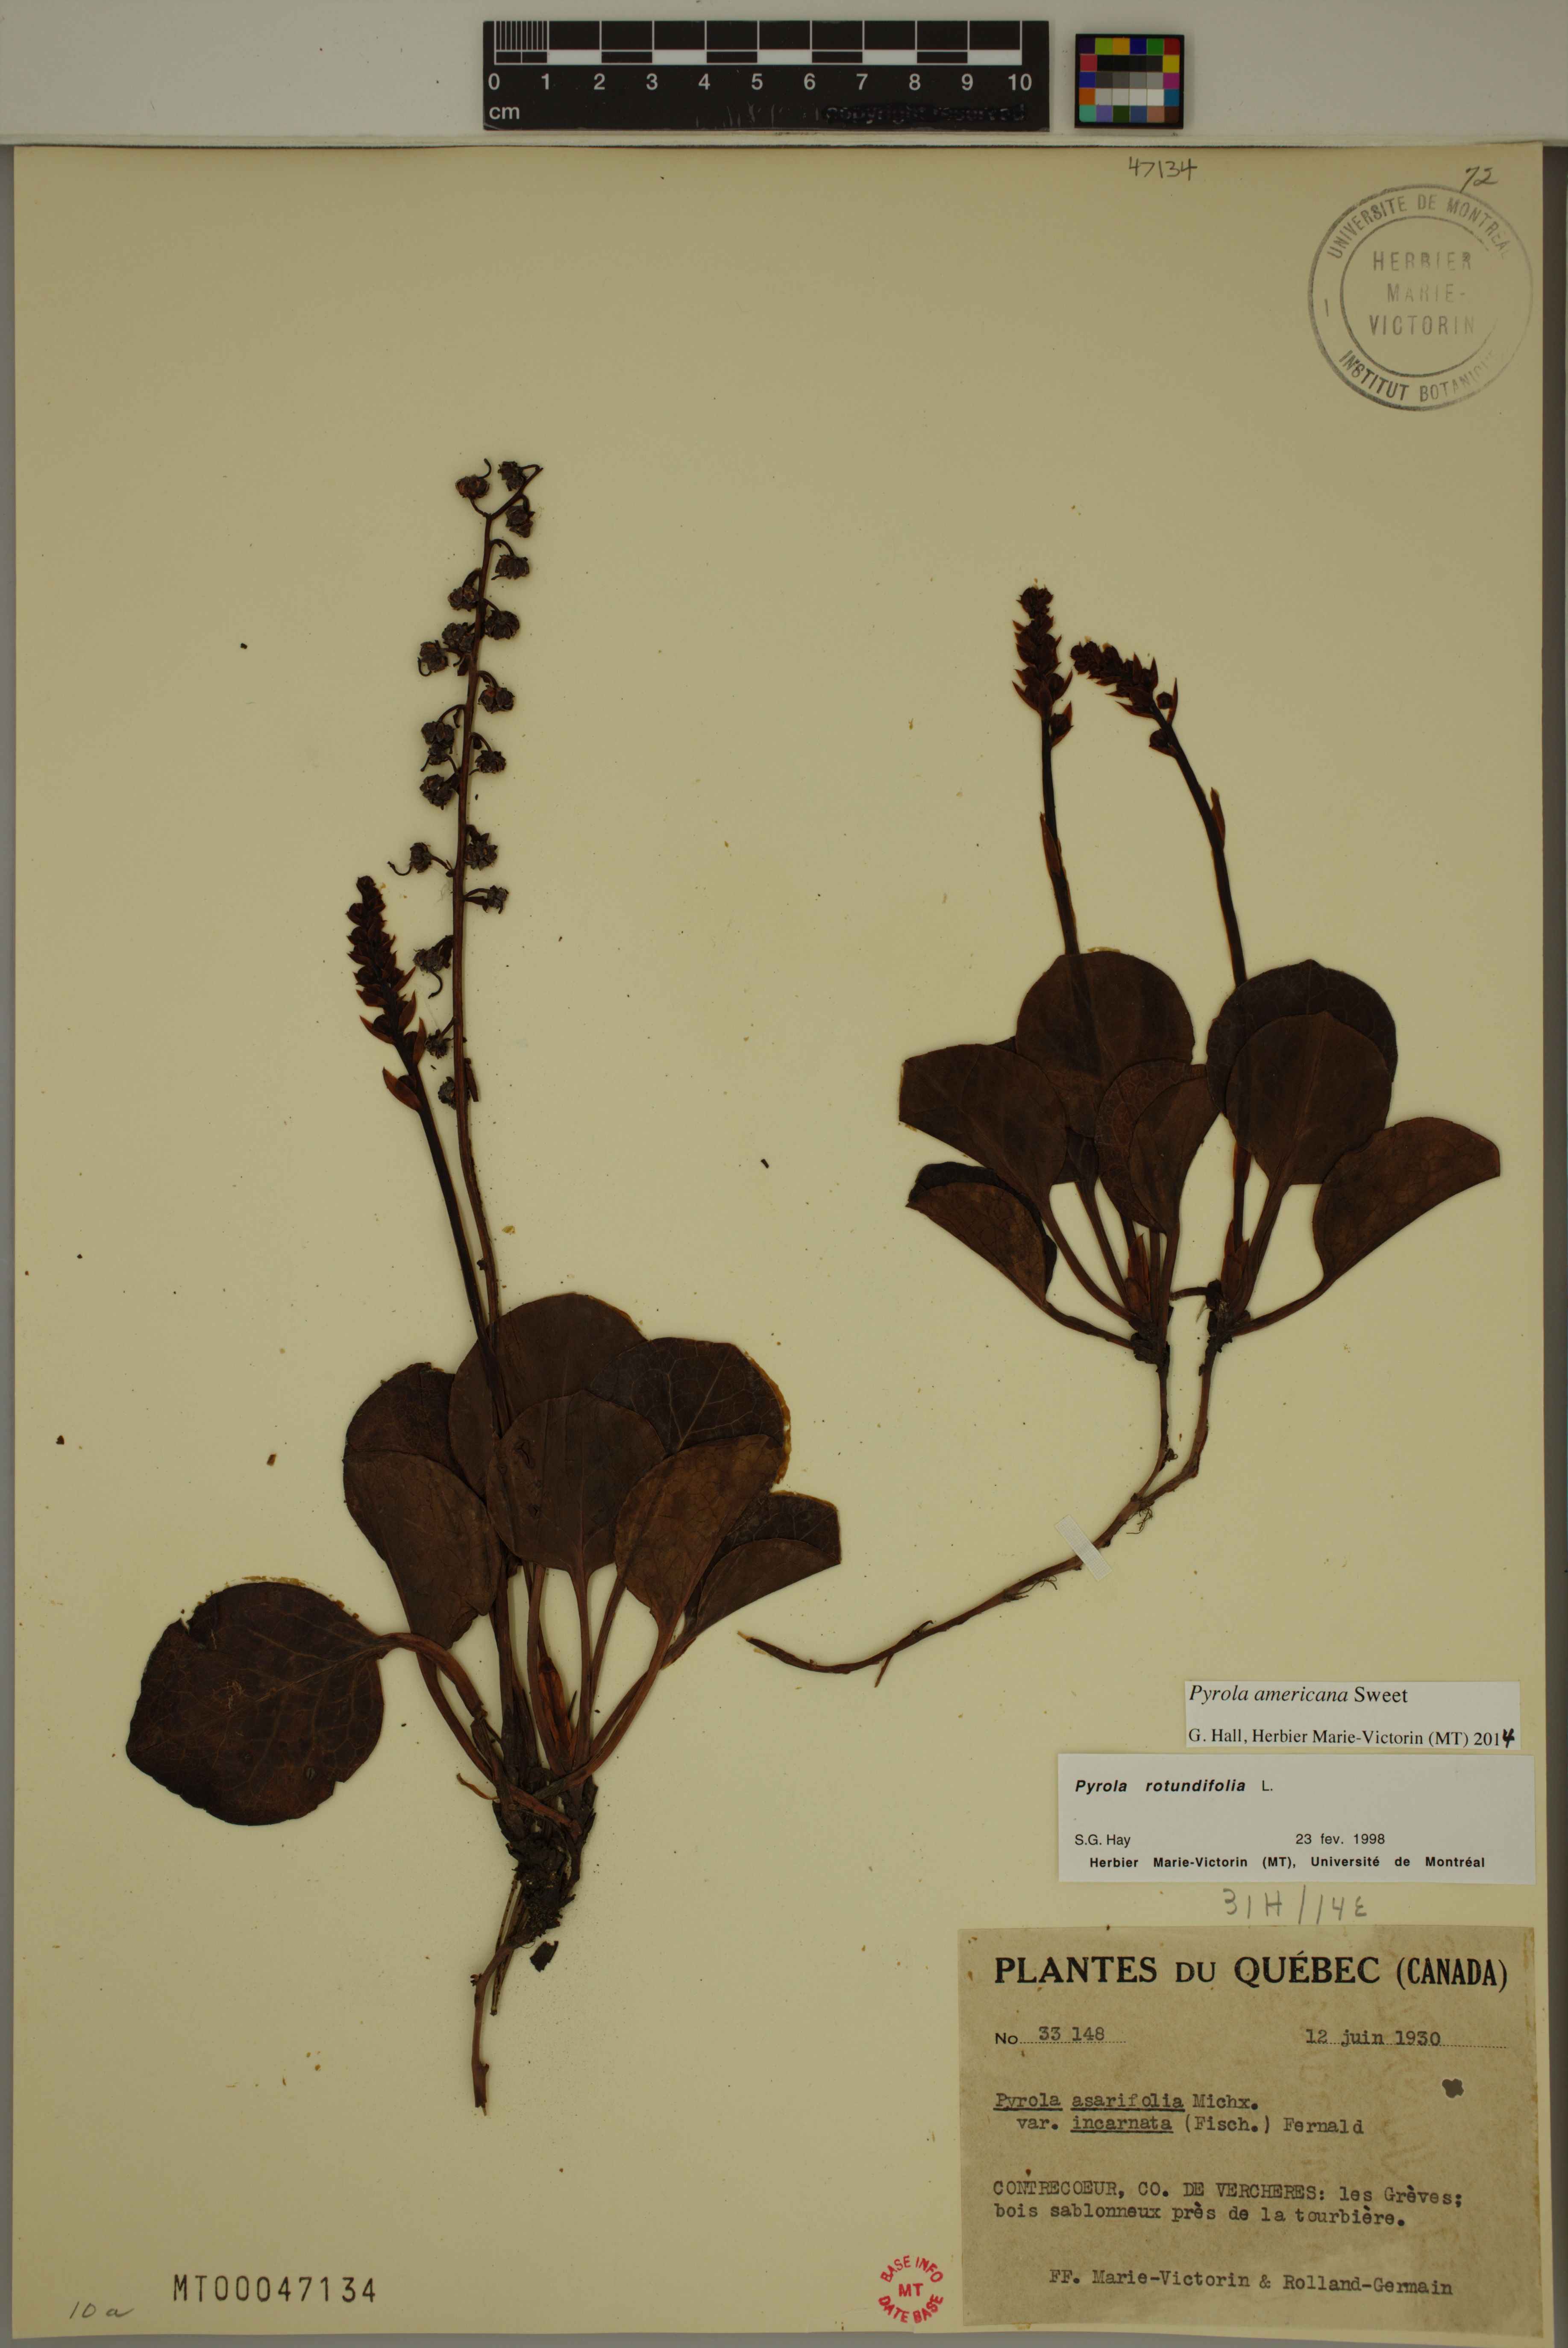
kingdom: Plantae
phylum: Tracheophyta
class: Magnoliopsida
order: Ericales
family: Ericaceae
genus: Pyrola
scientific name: Pyrola americana
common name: American wintergreen
